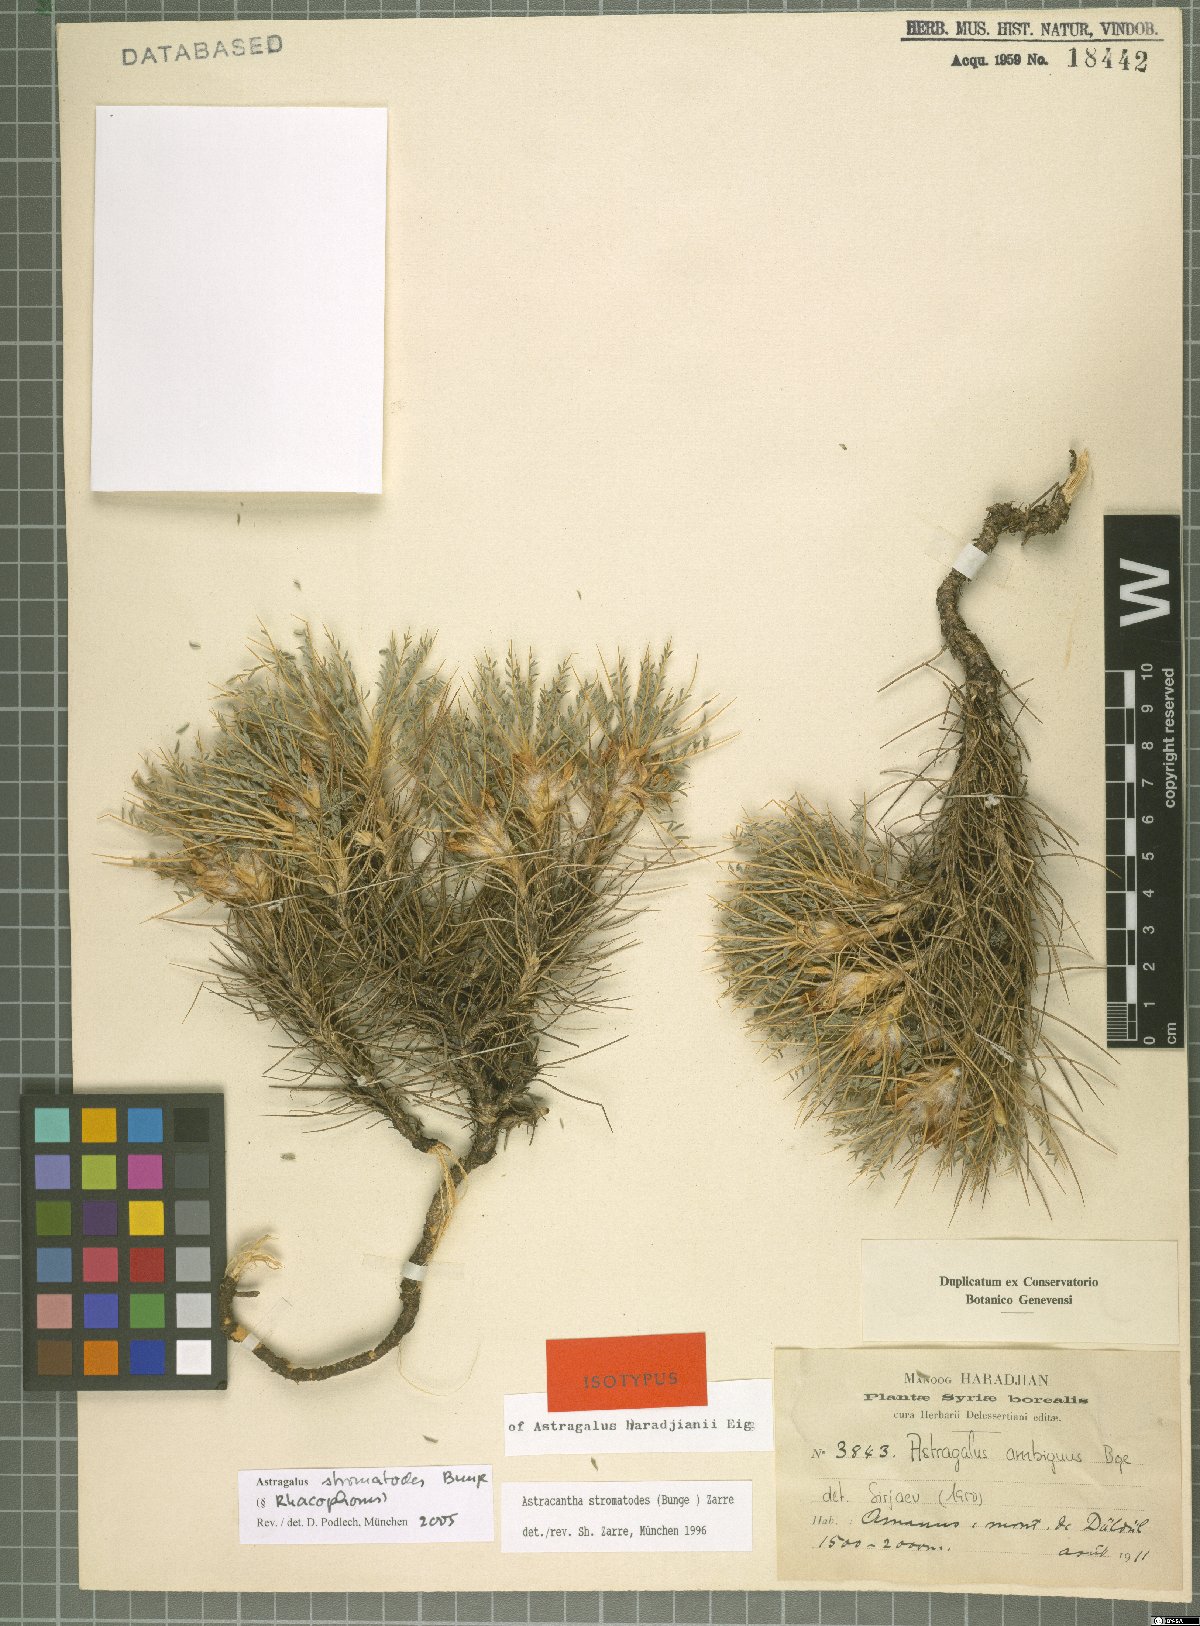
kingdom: Plantae
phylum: Tracheophyta
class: Magnoliopsida
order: Fabales
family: Fabaceae
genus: Astragalus
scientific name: Astragalus cymbostegis
